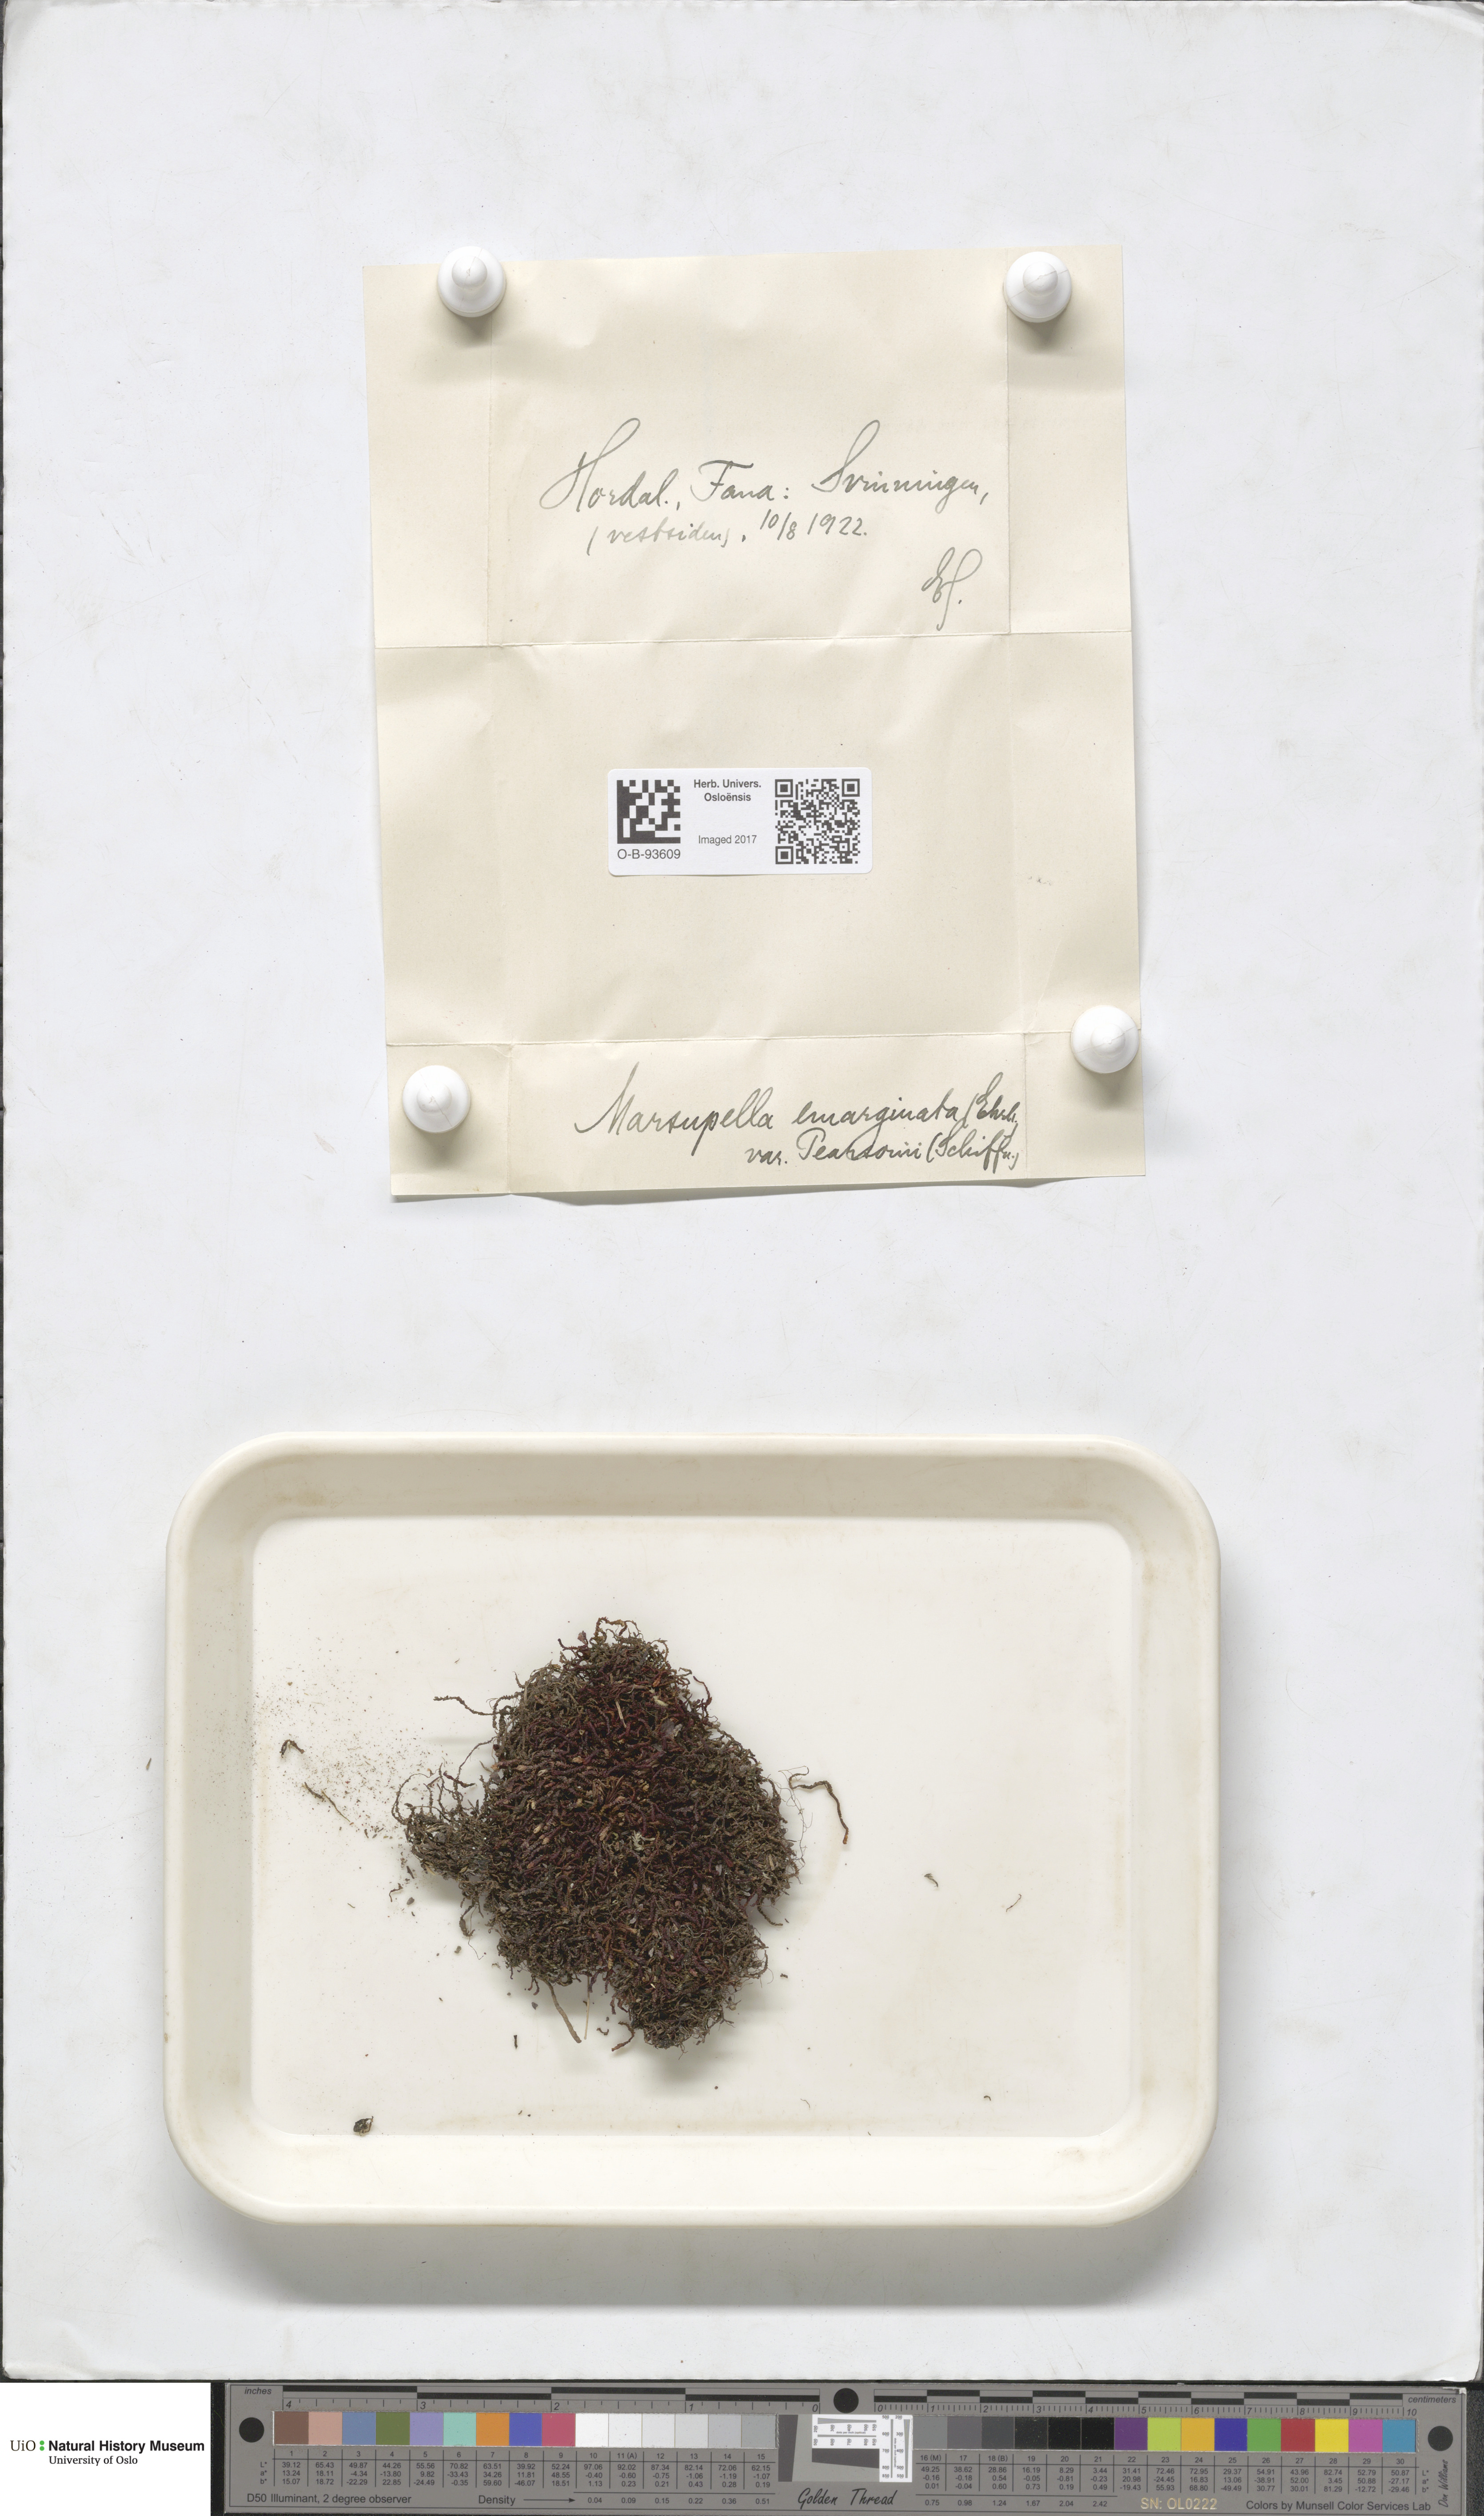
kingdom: Plantae
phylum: Marchantiophyta
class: Jungermanniopsida
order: Jungermanniales
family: Gymnomitriaceae
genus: Marsupella
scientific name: Marsupella emarginata
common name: Notched rustwort
